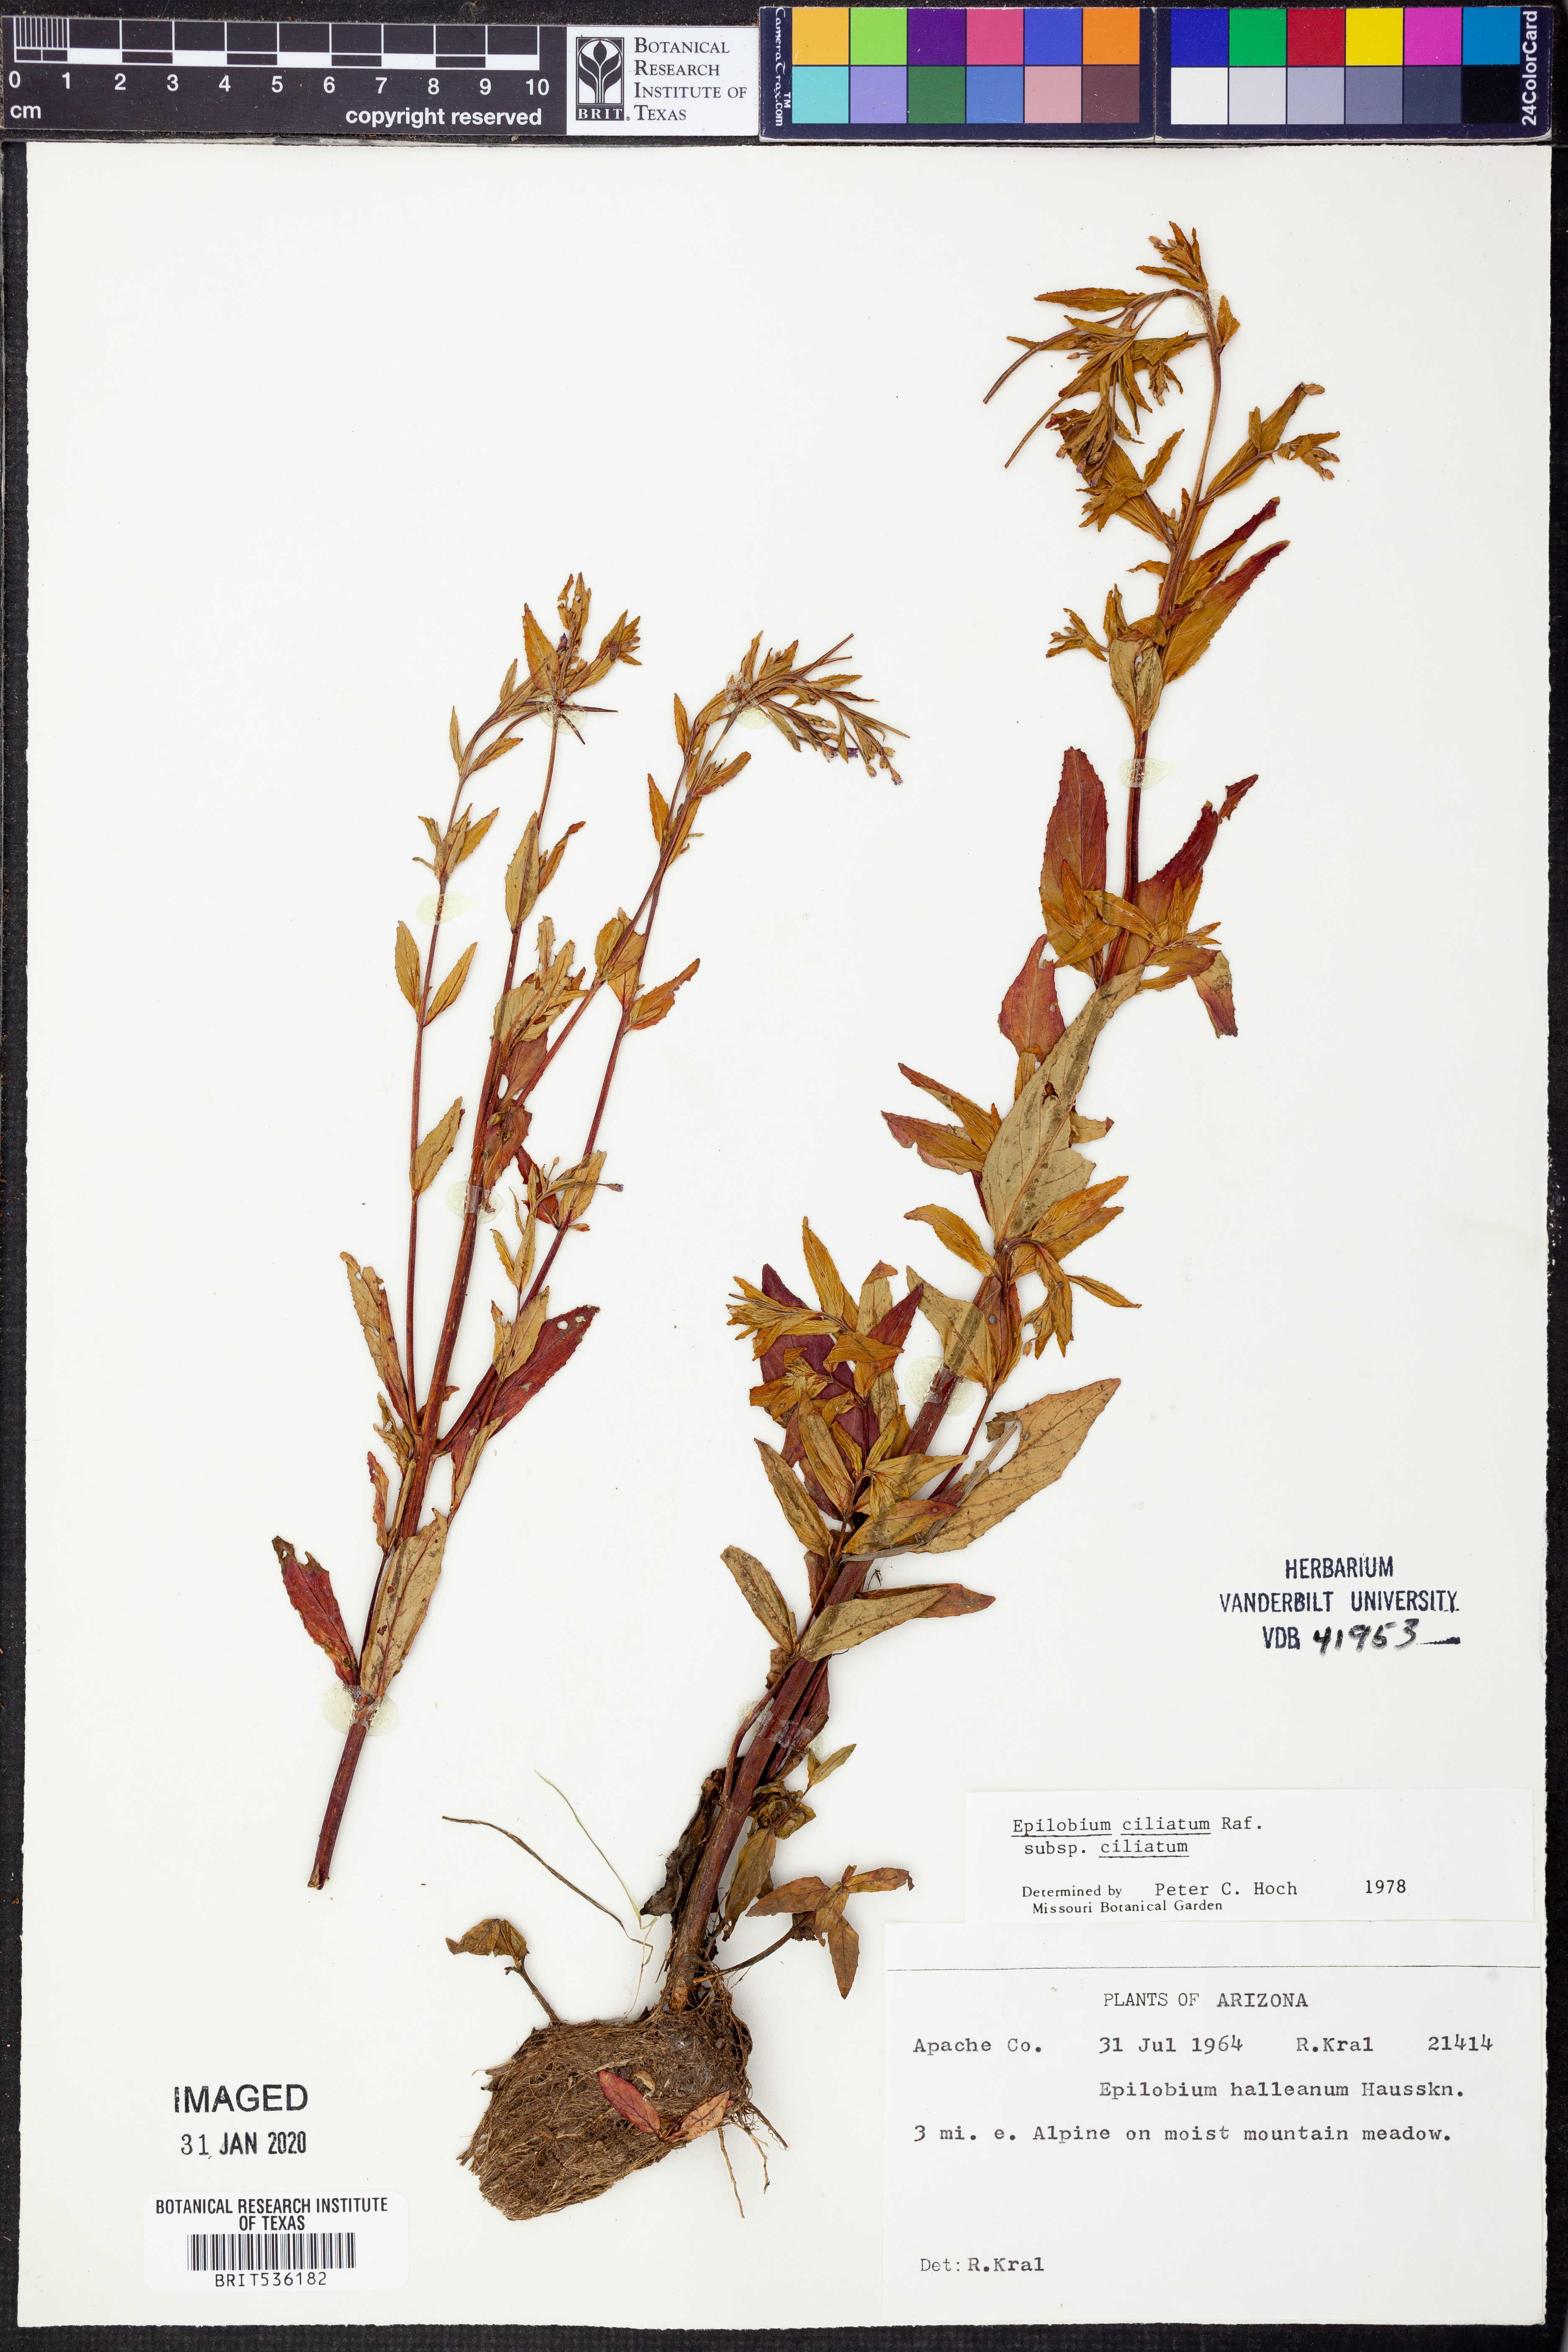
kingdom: Plantae
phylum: Tracheophyta
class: Magnoliopsida
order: Myrtales
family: Onagraceae
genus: Epilobium
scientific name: Epilobium ciliatum
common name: American willowherb
